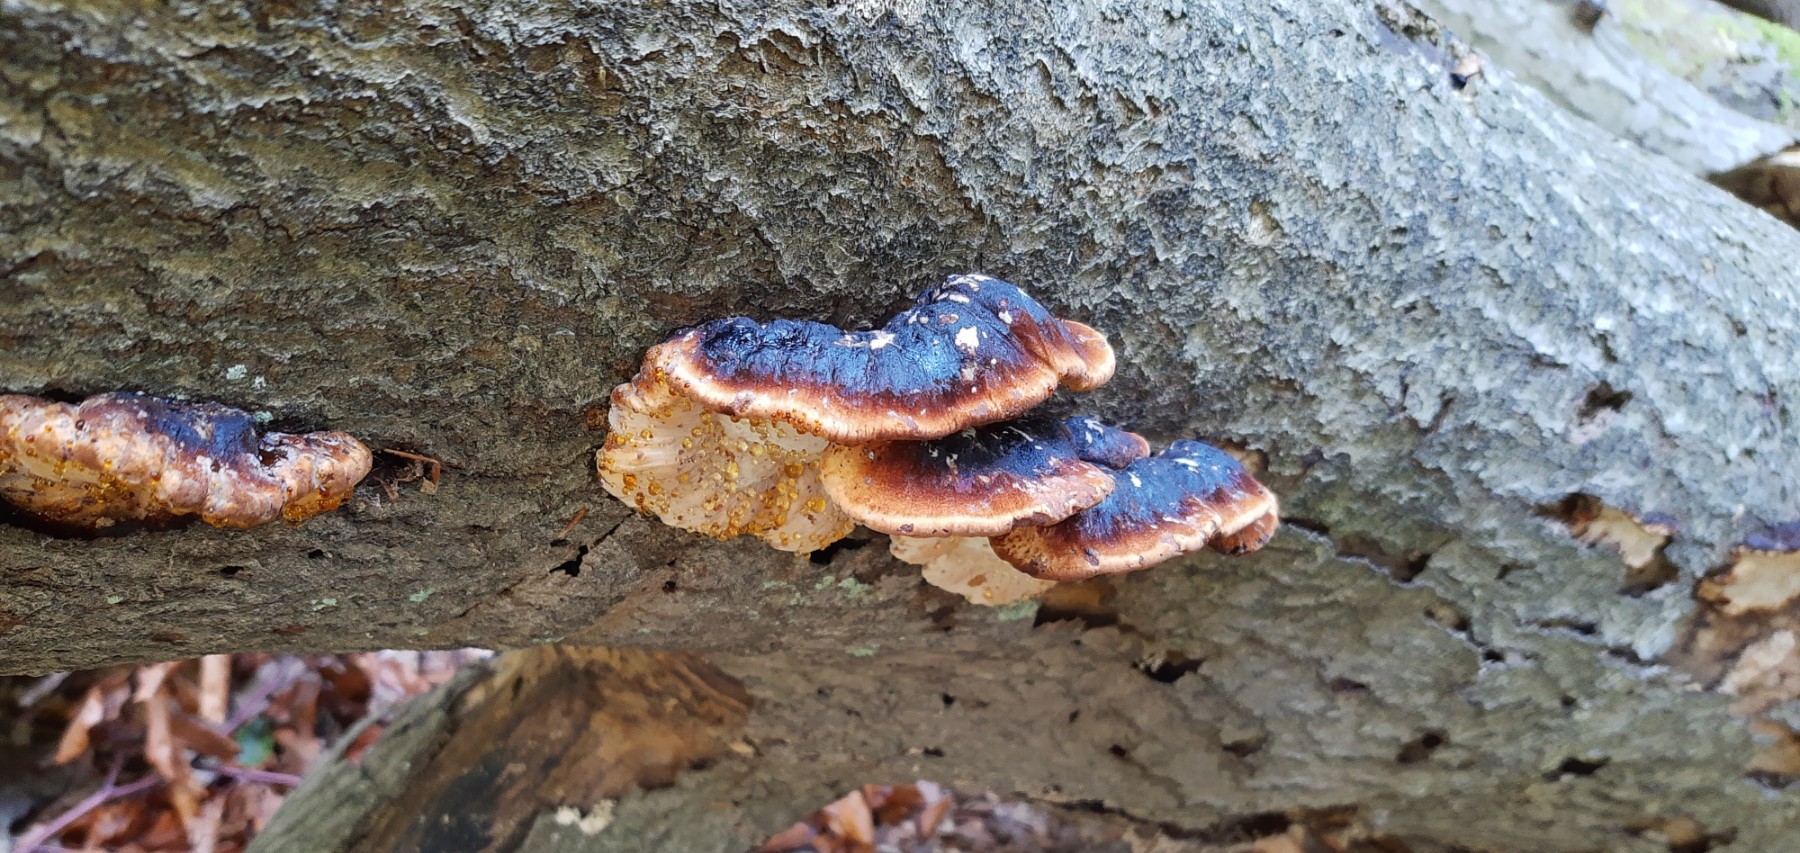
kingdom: Fungi
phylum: Basidiomycota
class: Agaricomycetes
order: Polyporales
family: Ischnodermataceae
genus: Ischnoderma
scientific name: Ischnoderma resinosum
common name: løv-tjæreporesvamp
